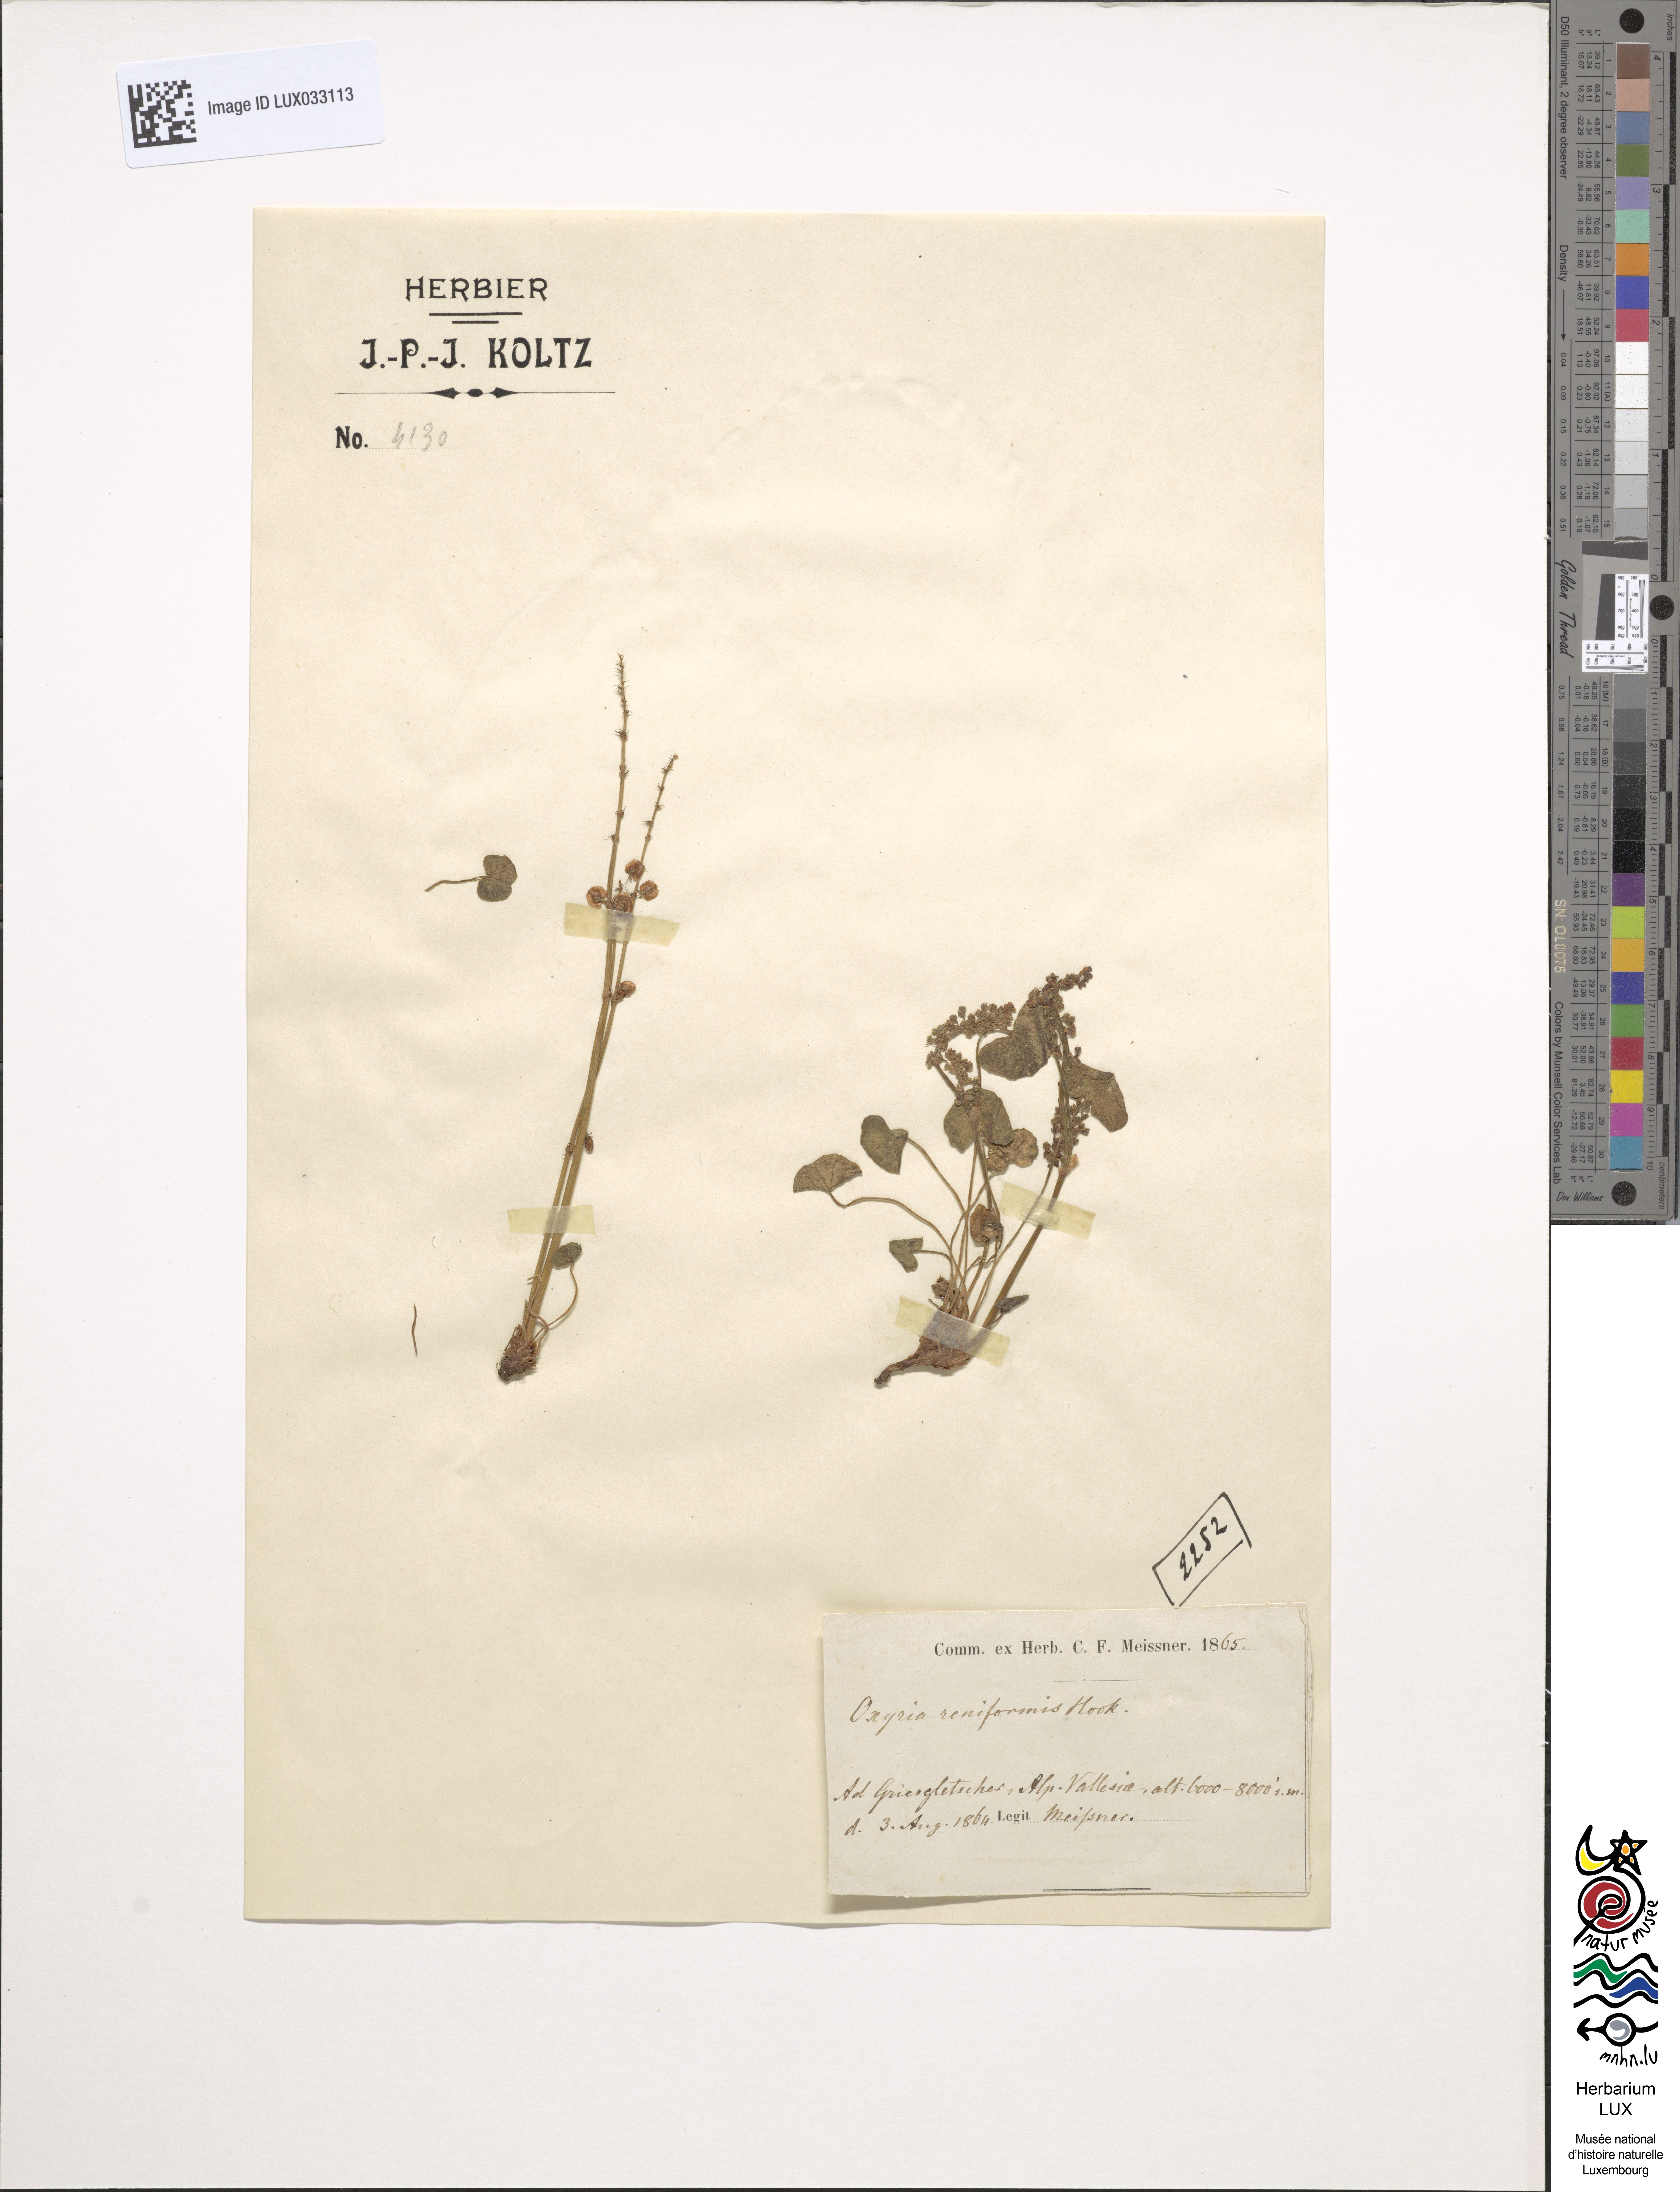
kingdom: Plantae
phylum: Tracheophyta
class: Magnoliopsida
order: Caryophyllales
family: Polygonaceae
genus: Oxyria
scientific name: Oxyria digyna
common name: Alpine mountain-sorrel
